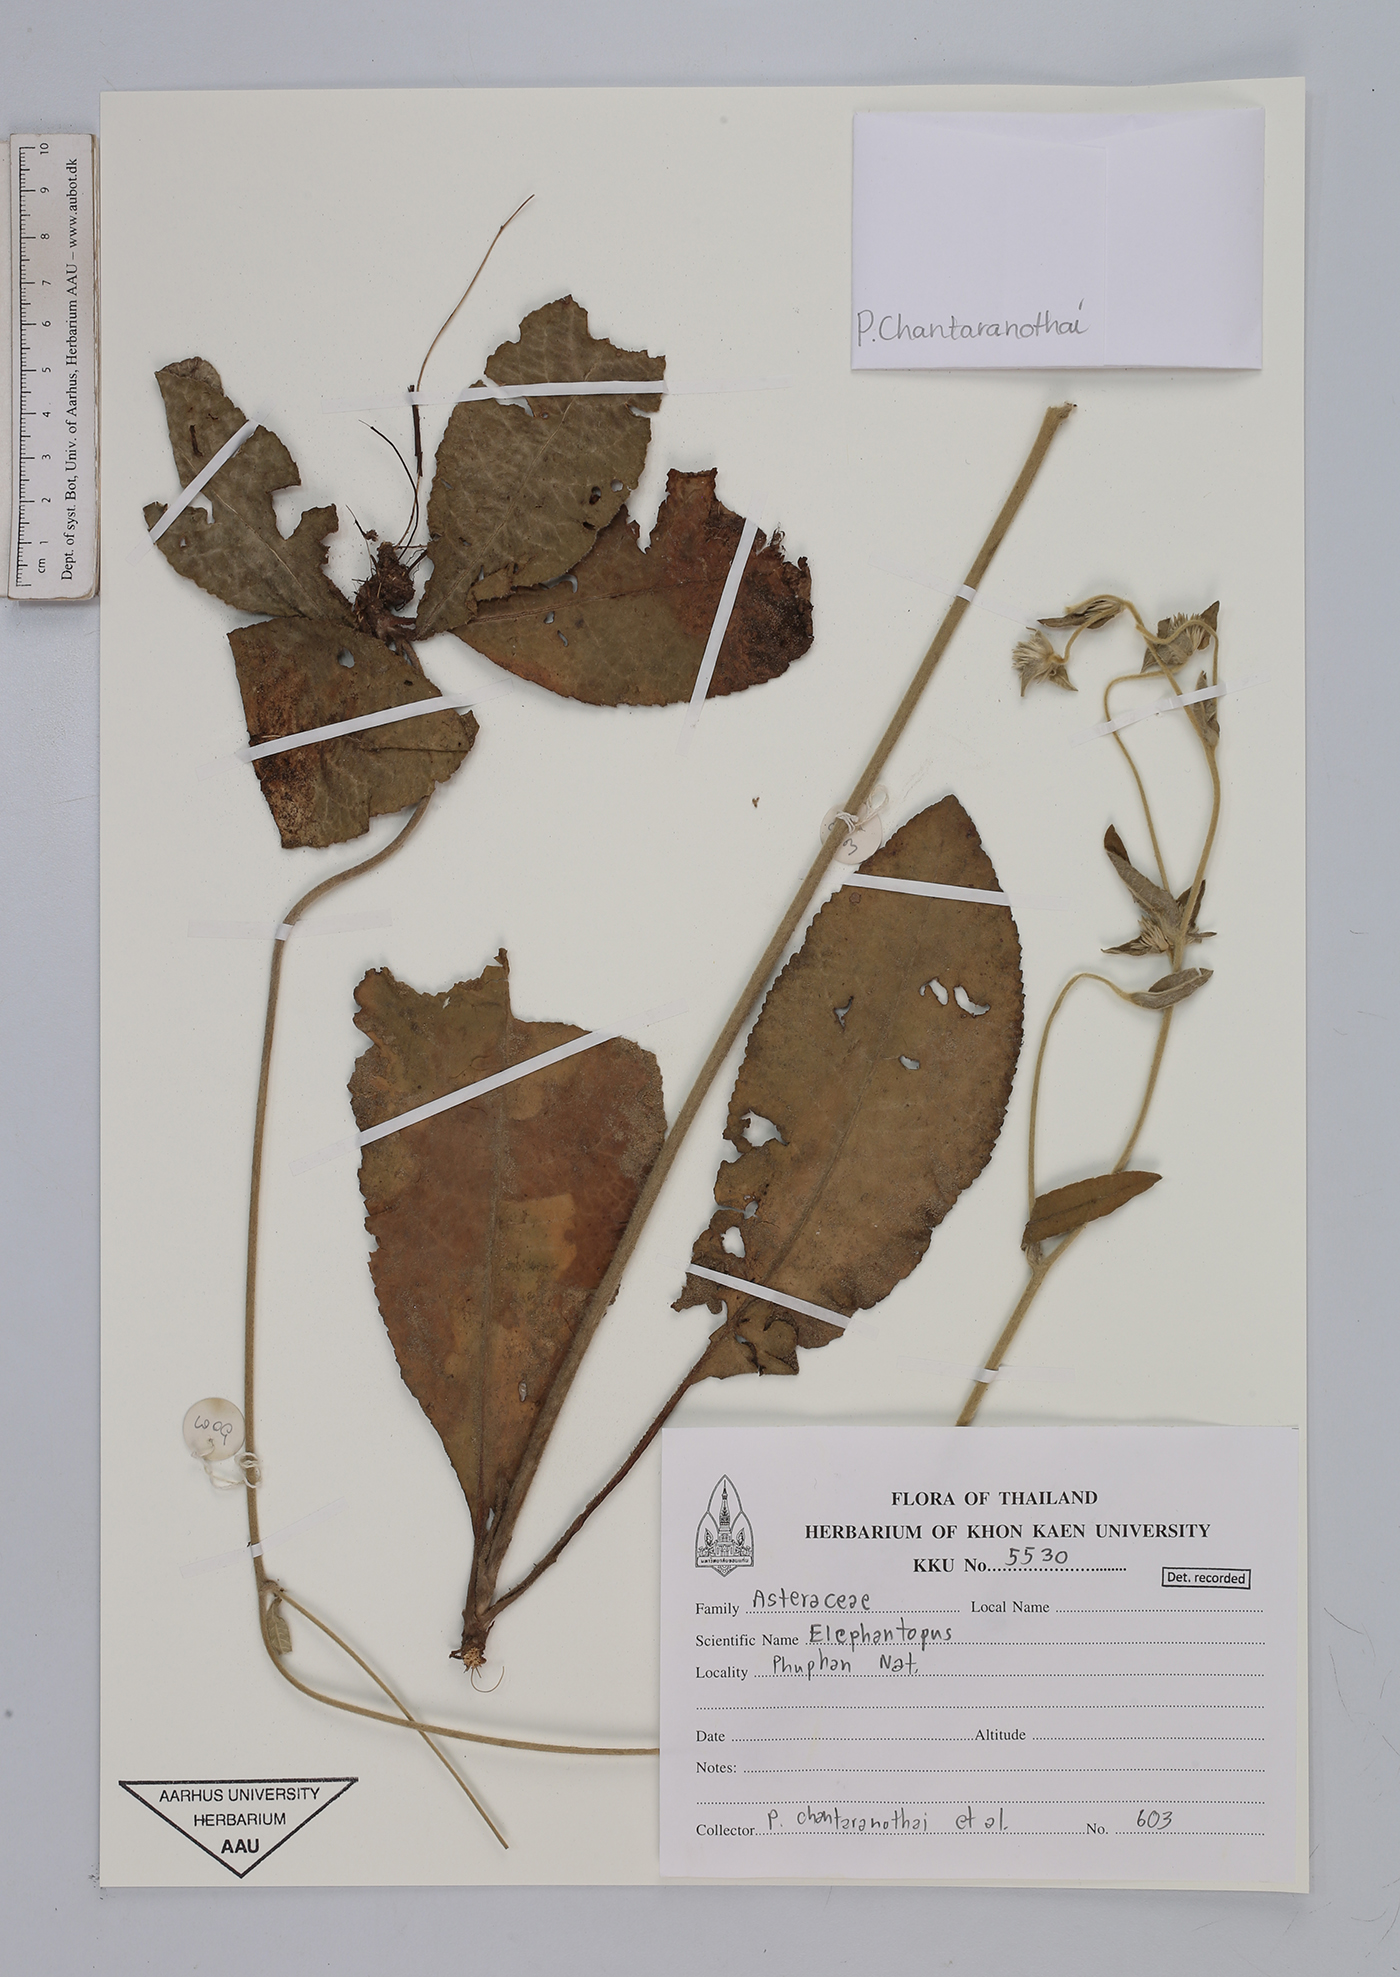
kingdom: Plantae
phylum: Tracheophyta
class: Magnoliopsida
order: Asterales
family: Asteraceae
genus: Elephantopus
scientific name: Elephantopus
